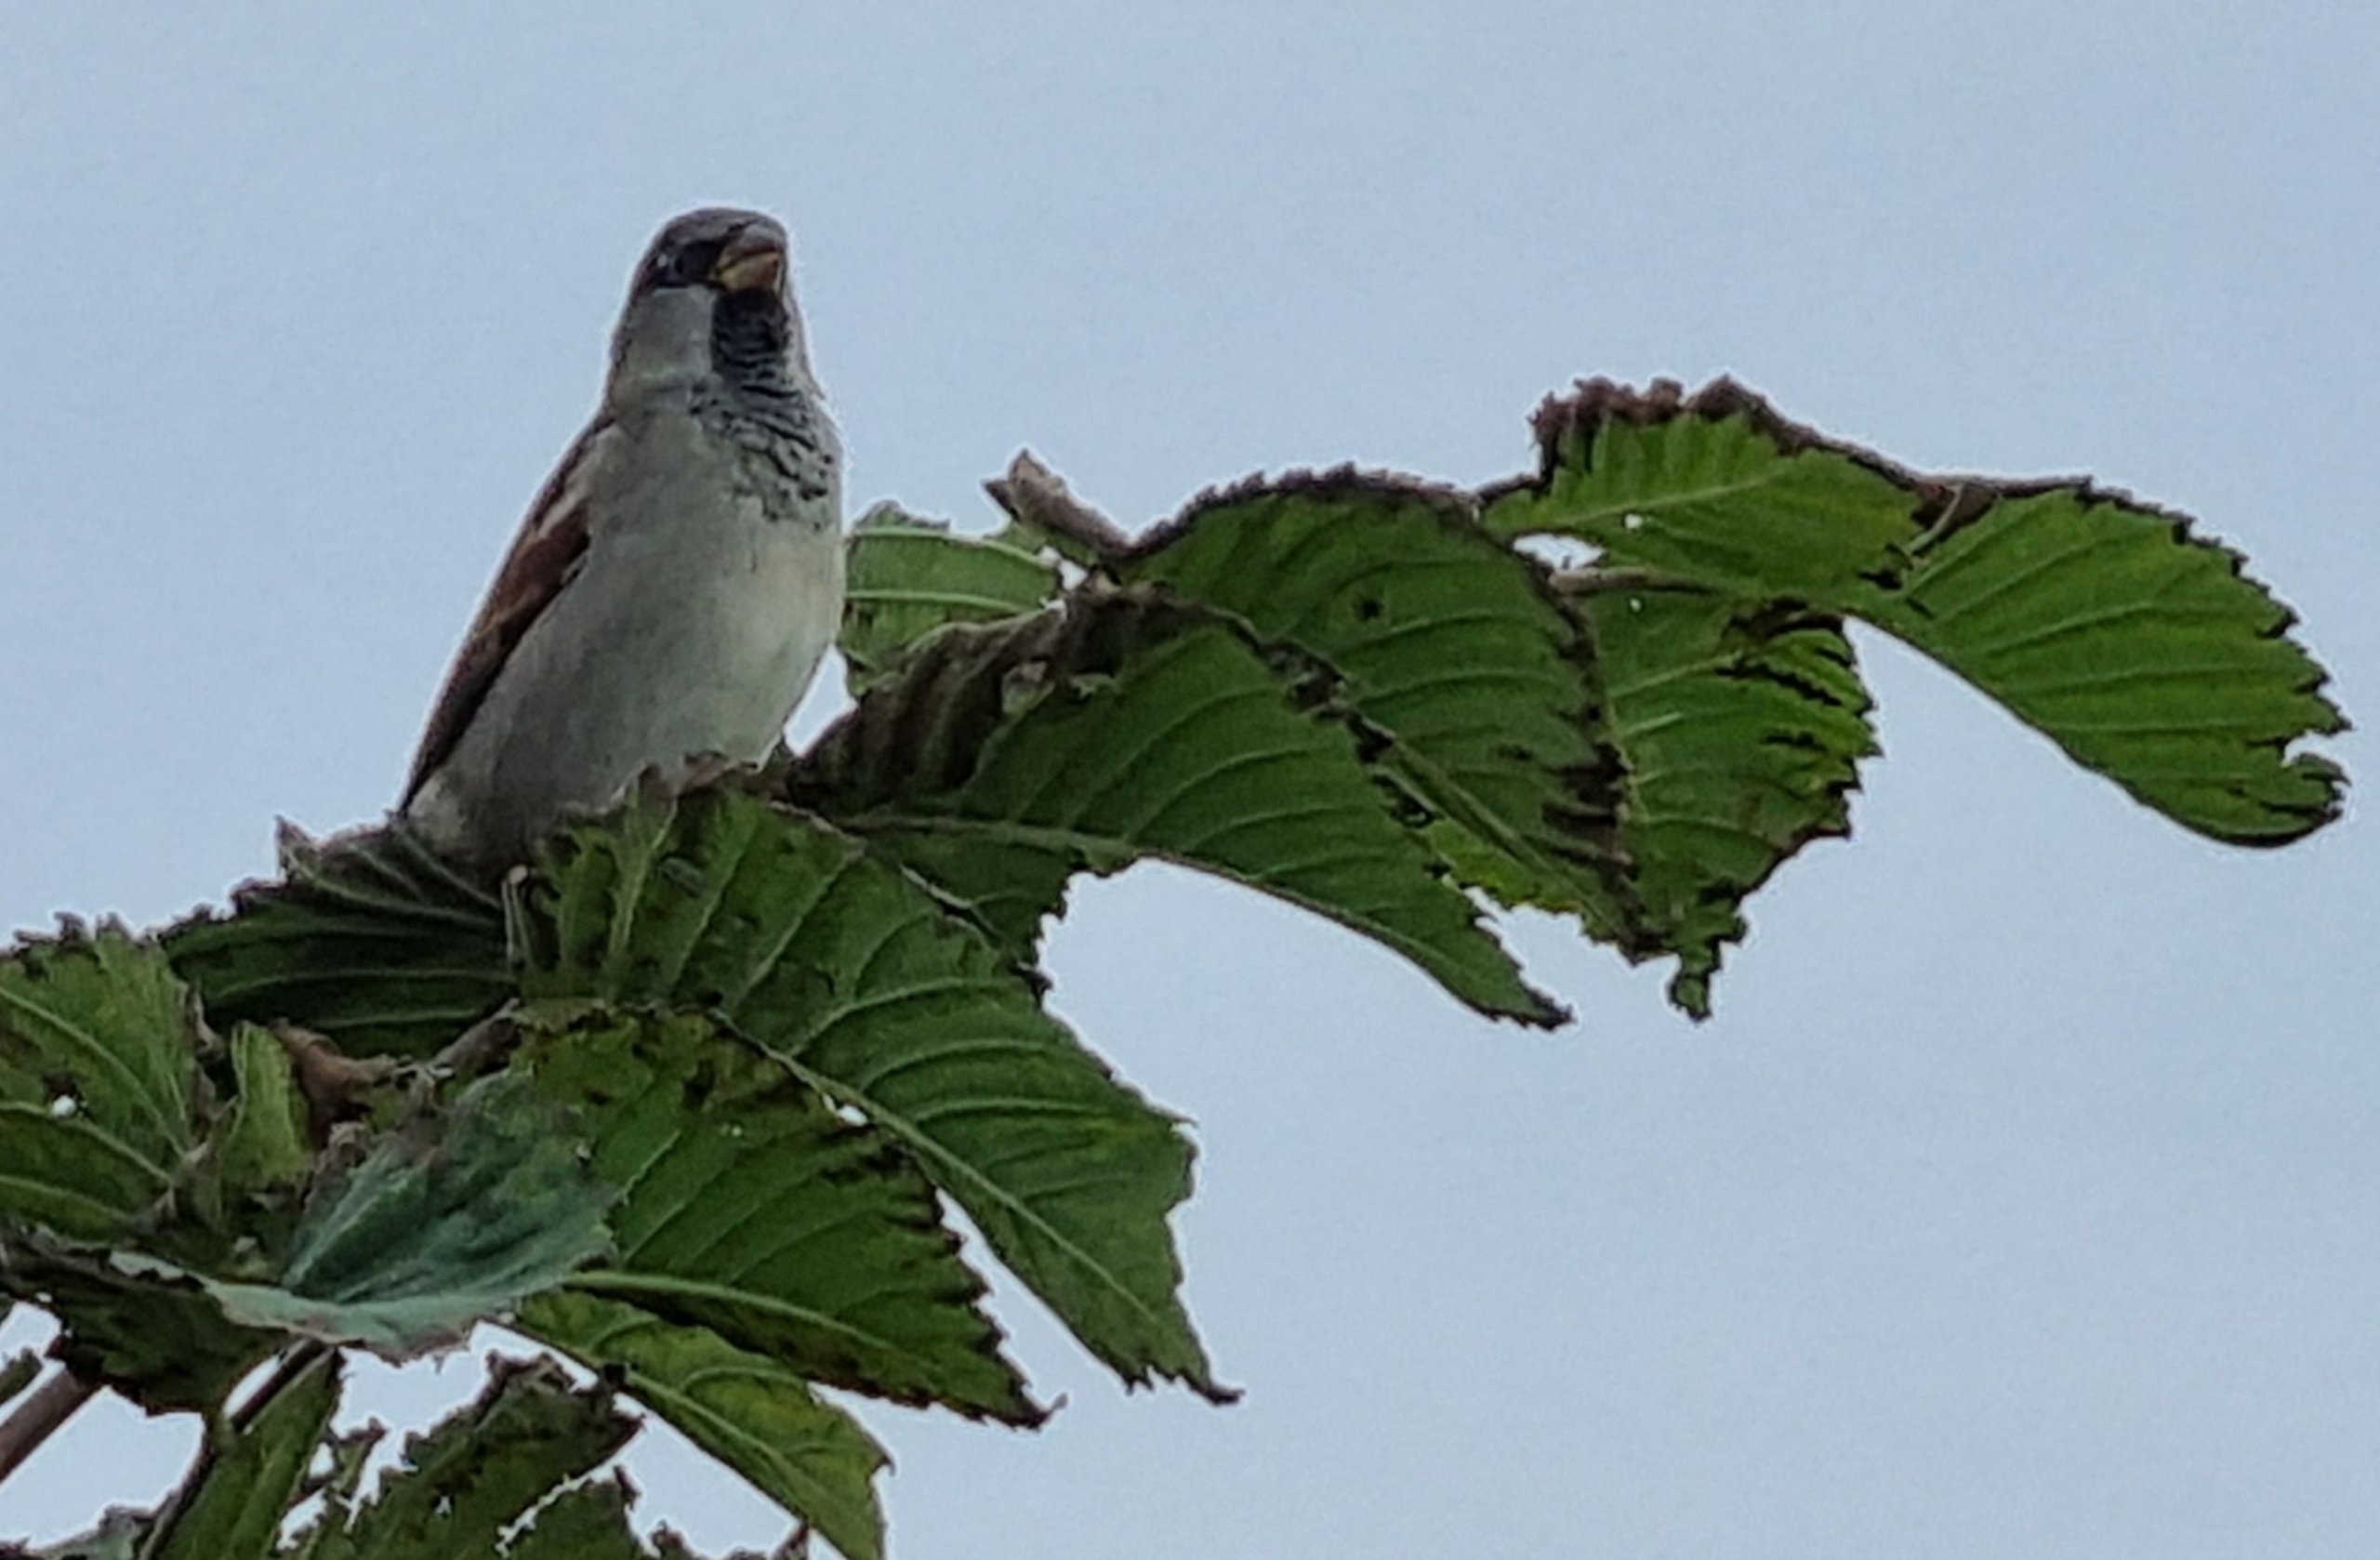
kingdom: Animalia
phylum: Chordata
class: Aves
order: Passeriformes
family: Passeridae
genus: Passer
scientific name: Passer domesticus
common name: Gråspurv
